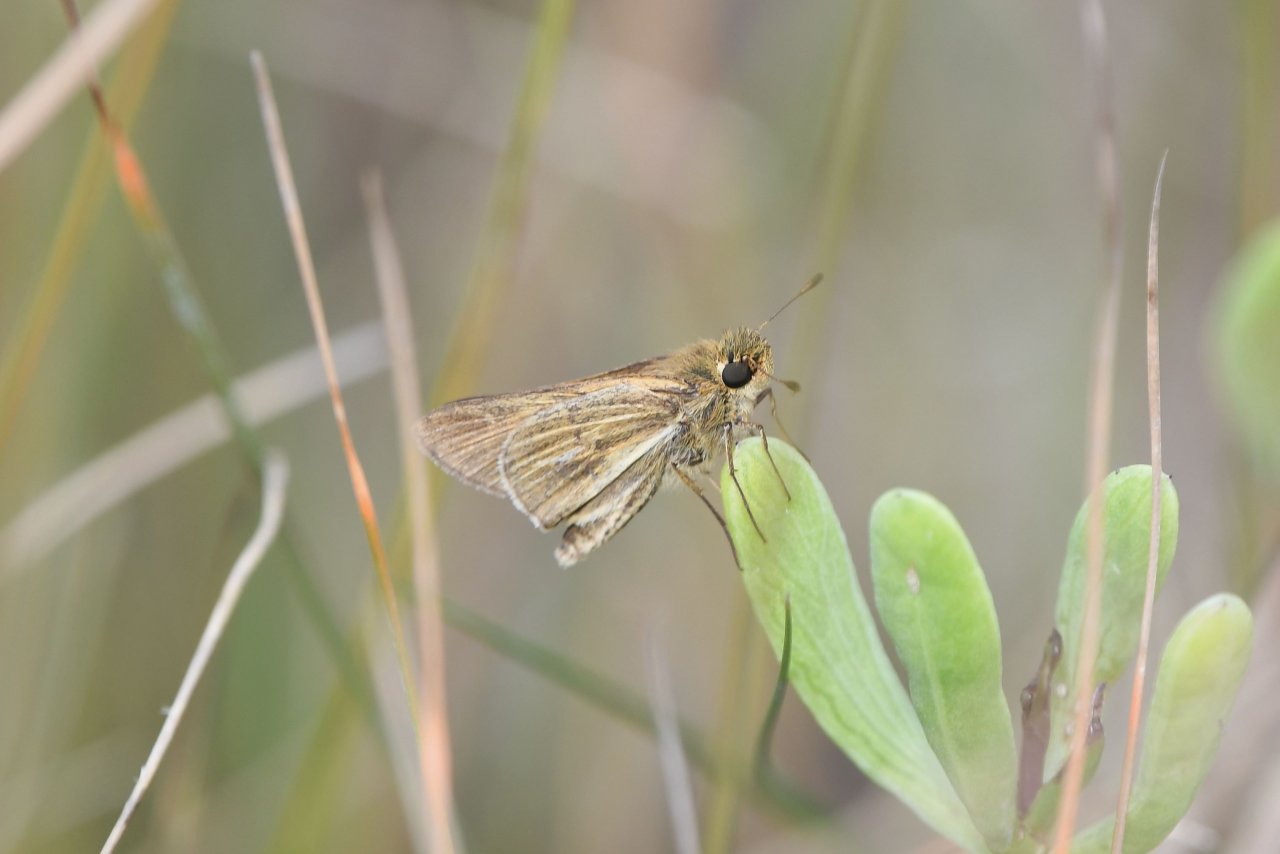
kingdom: Animalia
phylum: Arthropoda
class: Insecta
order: Lepidoptera
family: Hesperiidae
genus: Panoquina
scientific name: Panoquina panoquin
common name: Salt Marsh Skipper
